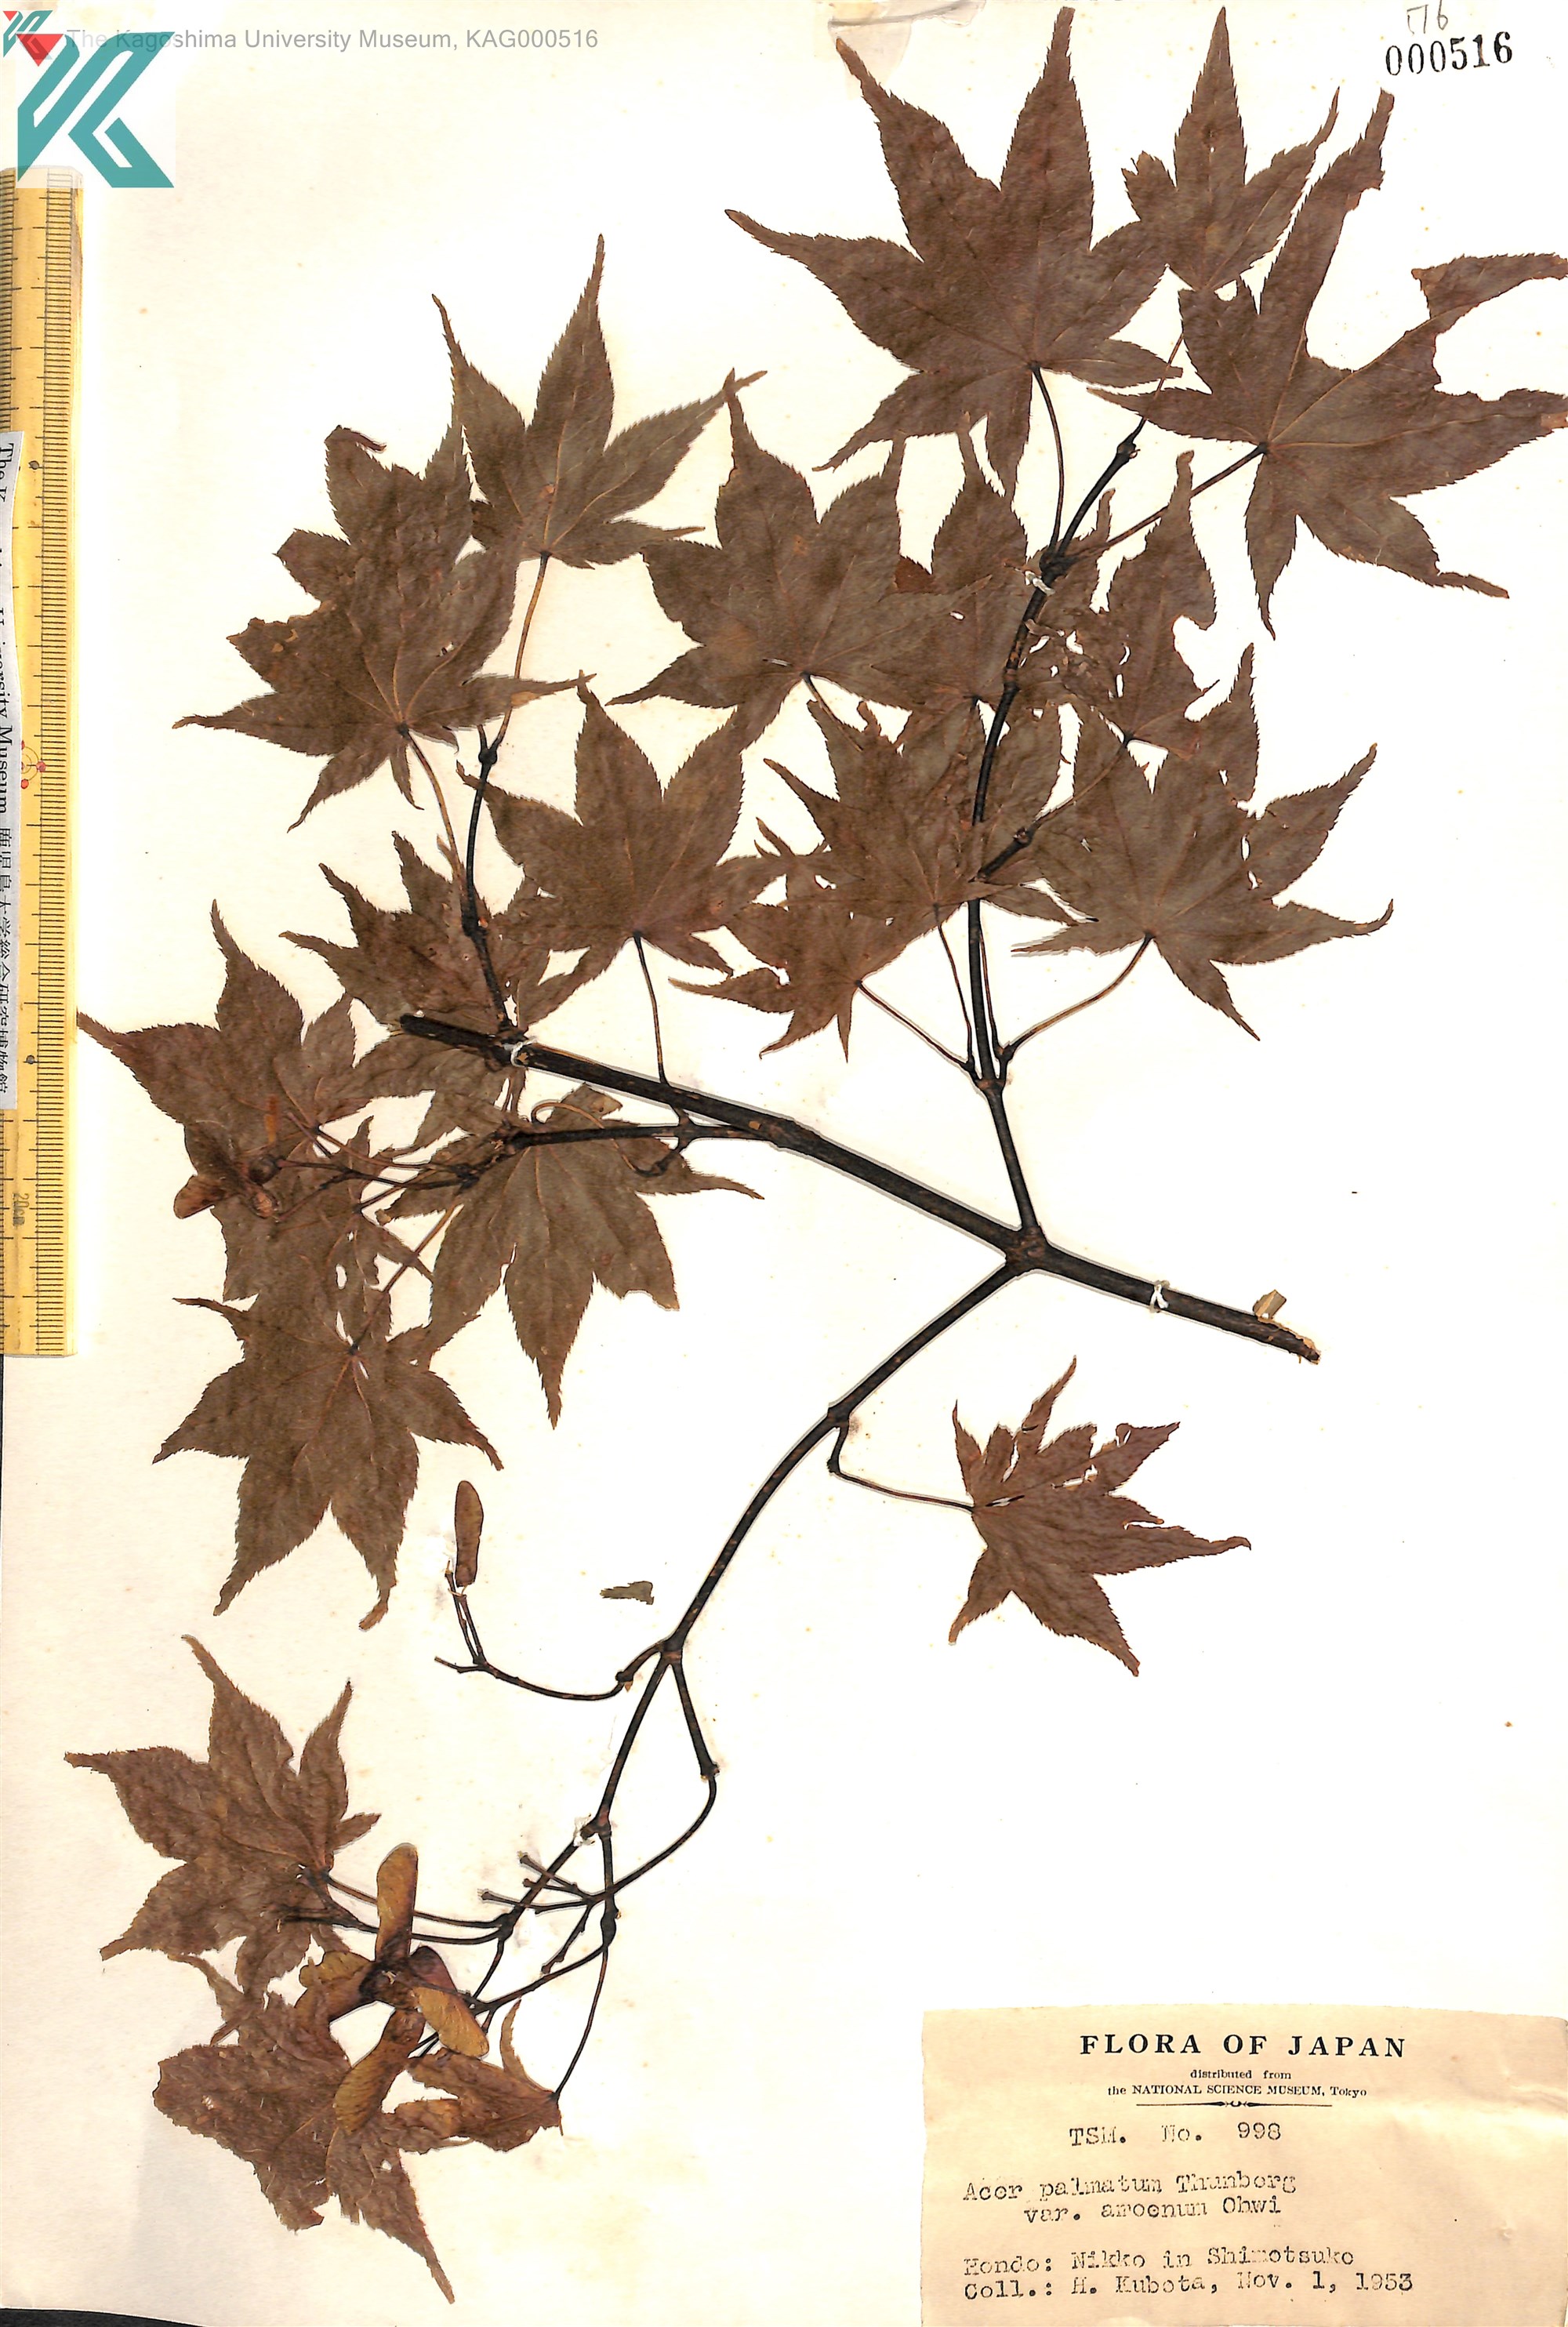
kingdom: Plantae
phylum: Tracheophyta
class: Magnoliopsida
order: Sapindales
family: Sapindaceae
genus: Acer
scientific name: Acer palmatum
